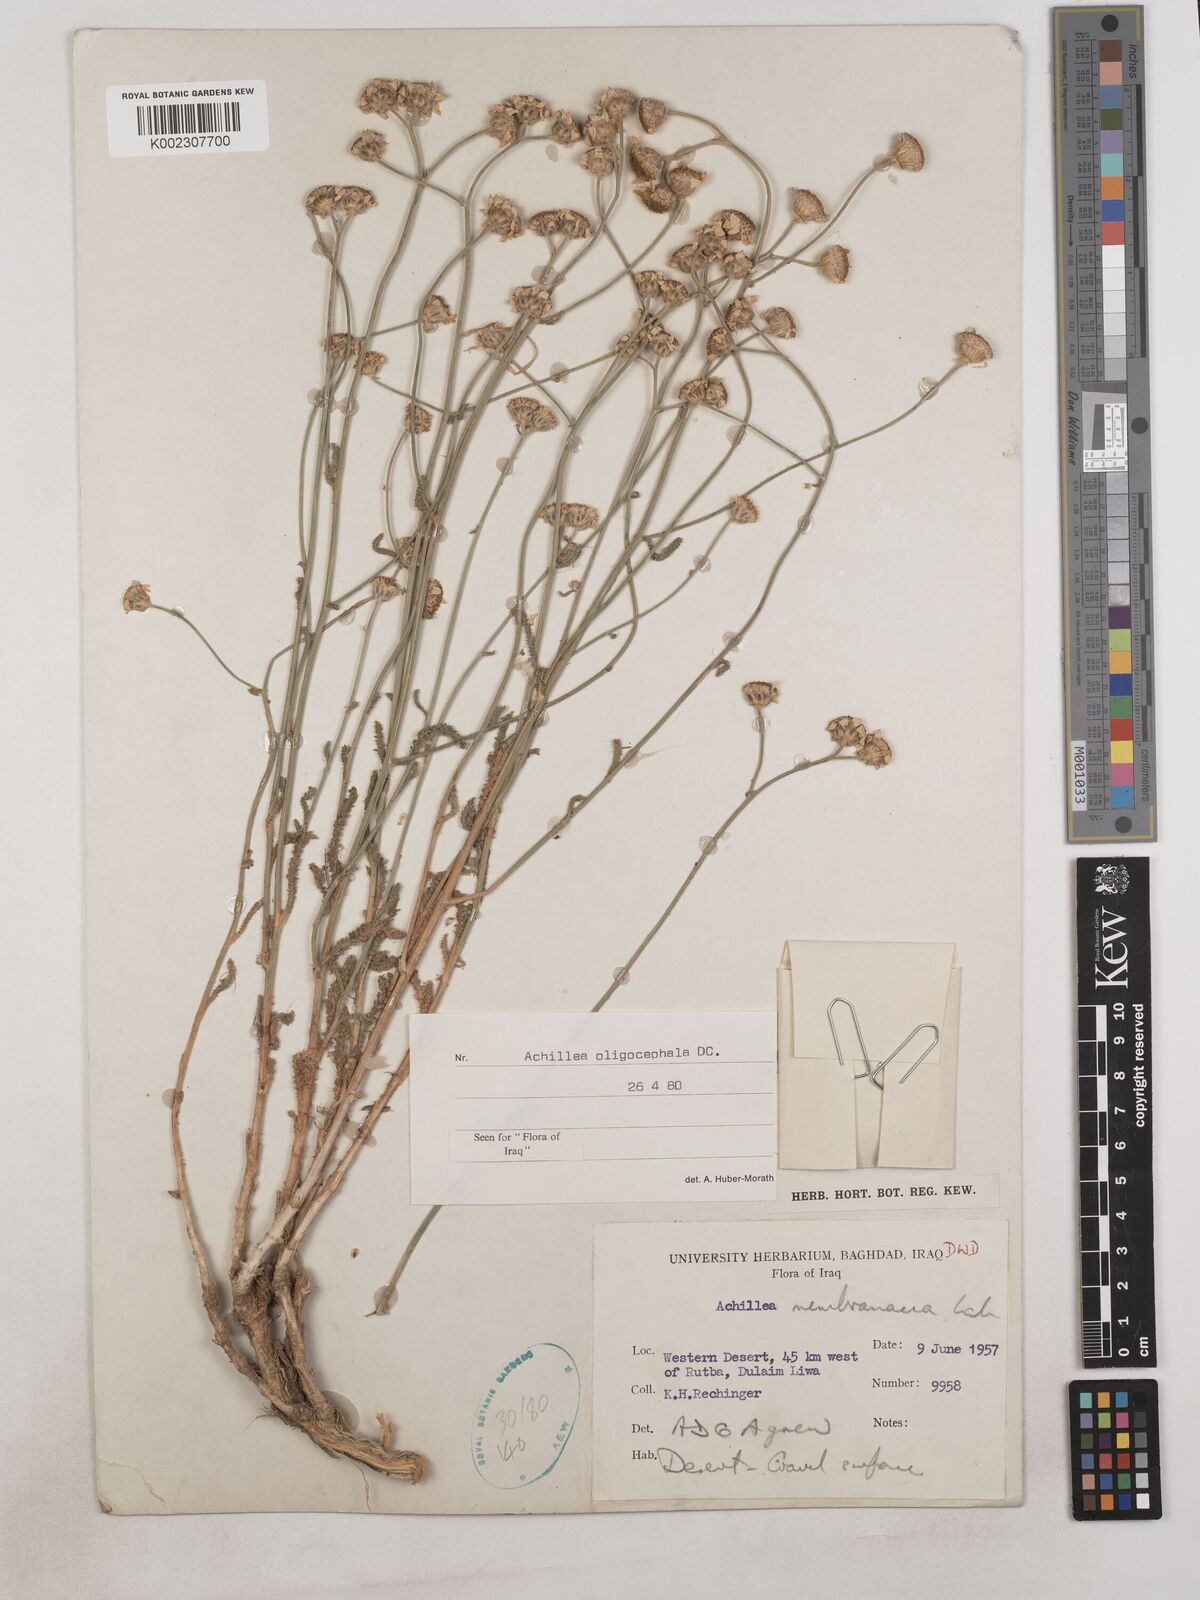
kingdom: Plantae
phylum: Tracheophyta
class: Magnoliopsida
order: Asterales
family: Asteraceae
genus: Achillea
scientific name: Achillea oligocephala
